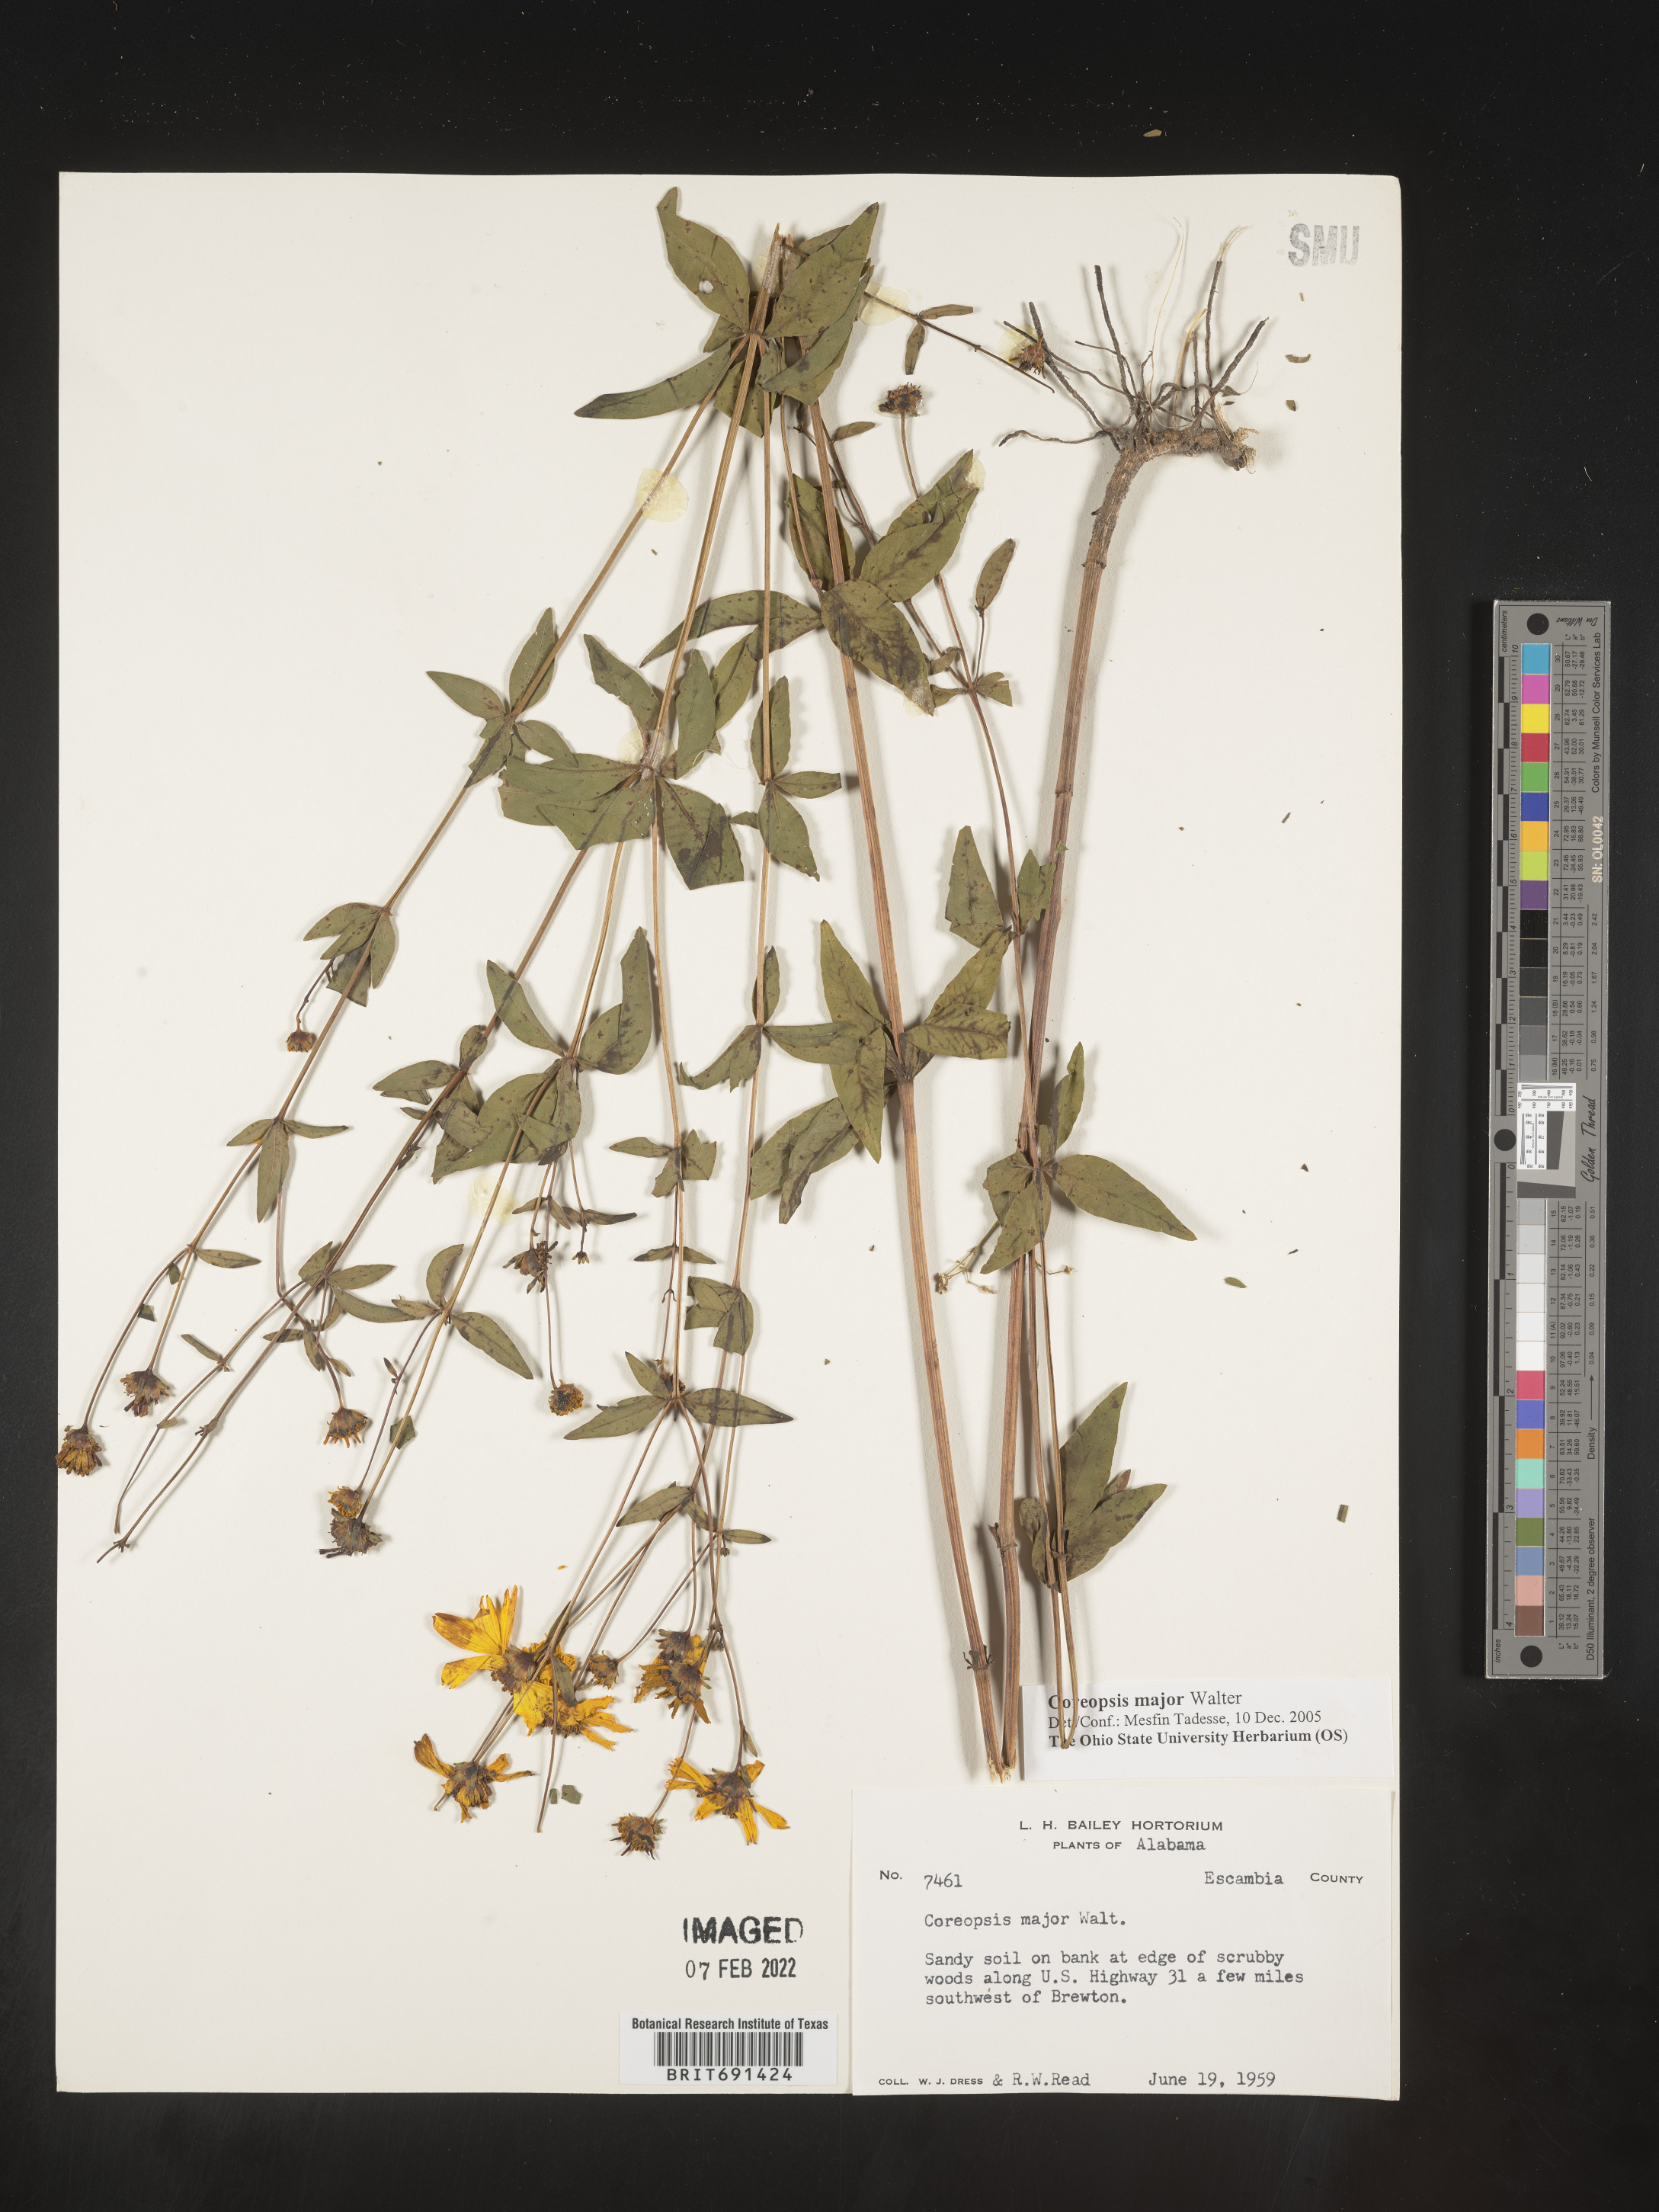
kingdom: Plantae
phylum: Tracheophyta
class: Magnoliopsida
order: Asterales
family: Asteraceae
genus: Coreopsis
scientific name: Coreopsis major
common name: Forest tickseed
